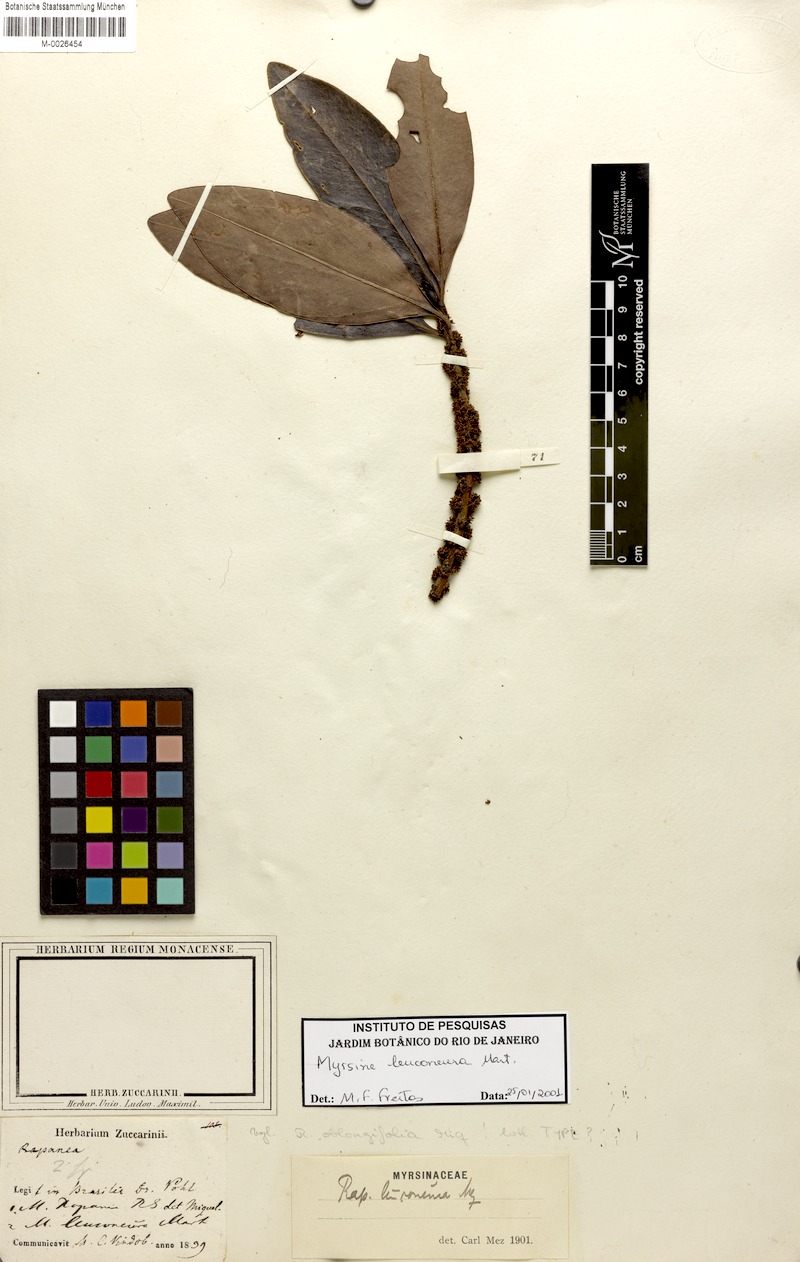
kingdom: Plantae
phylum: Tracheophyta
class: Magnoliopsida
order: Ericales
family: Primulaceae
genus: Myrsine
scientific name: Myrsine leuconeura
